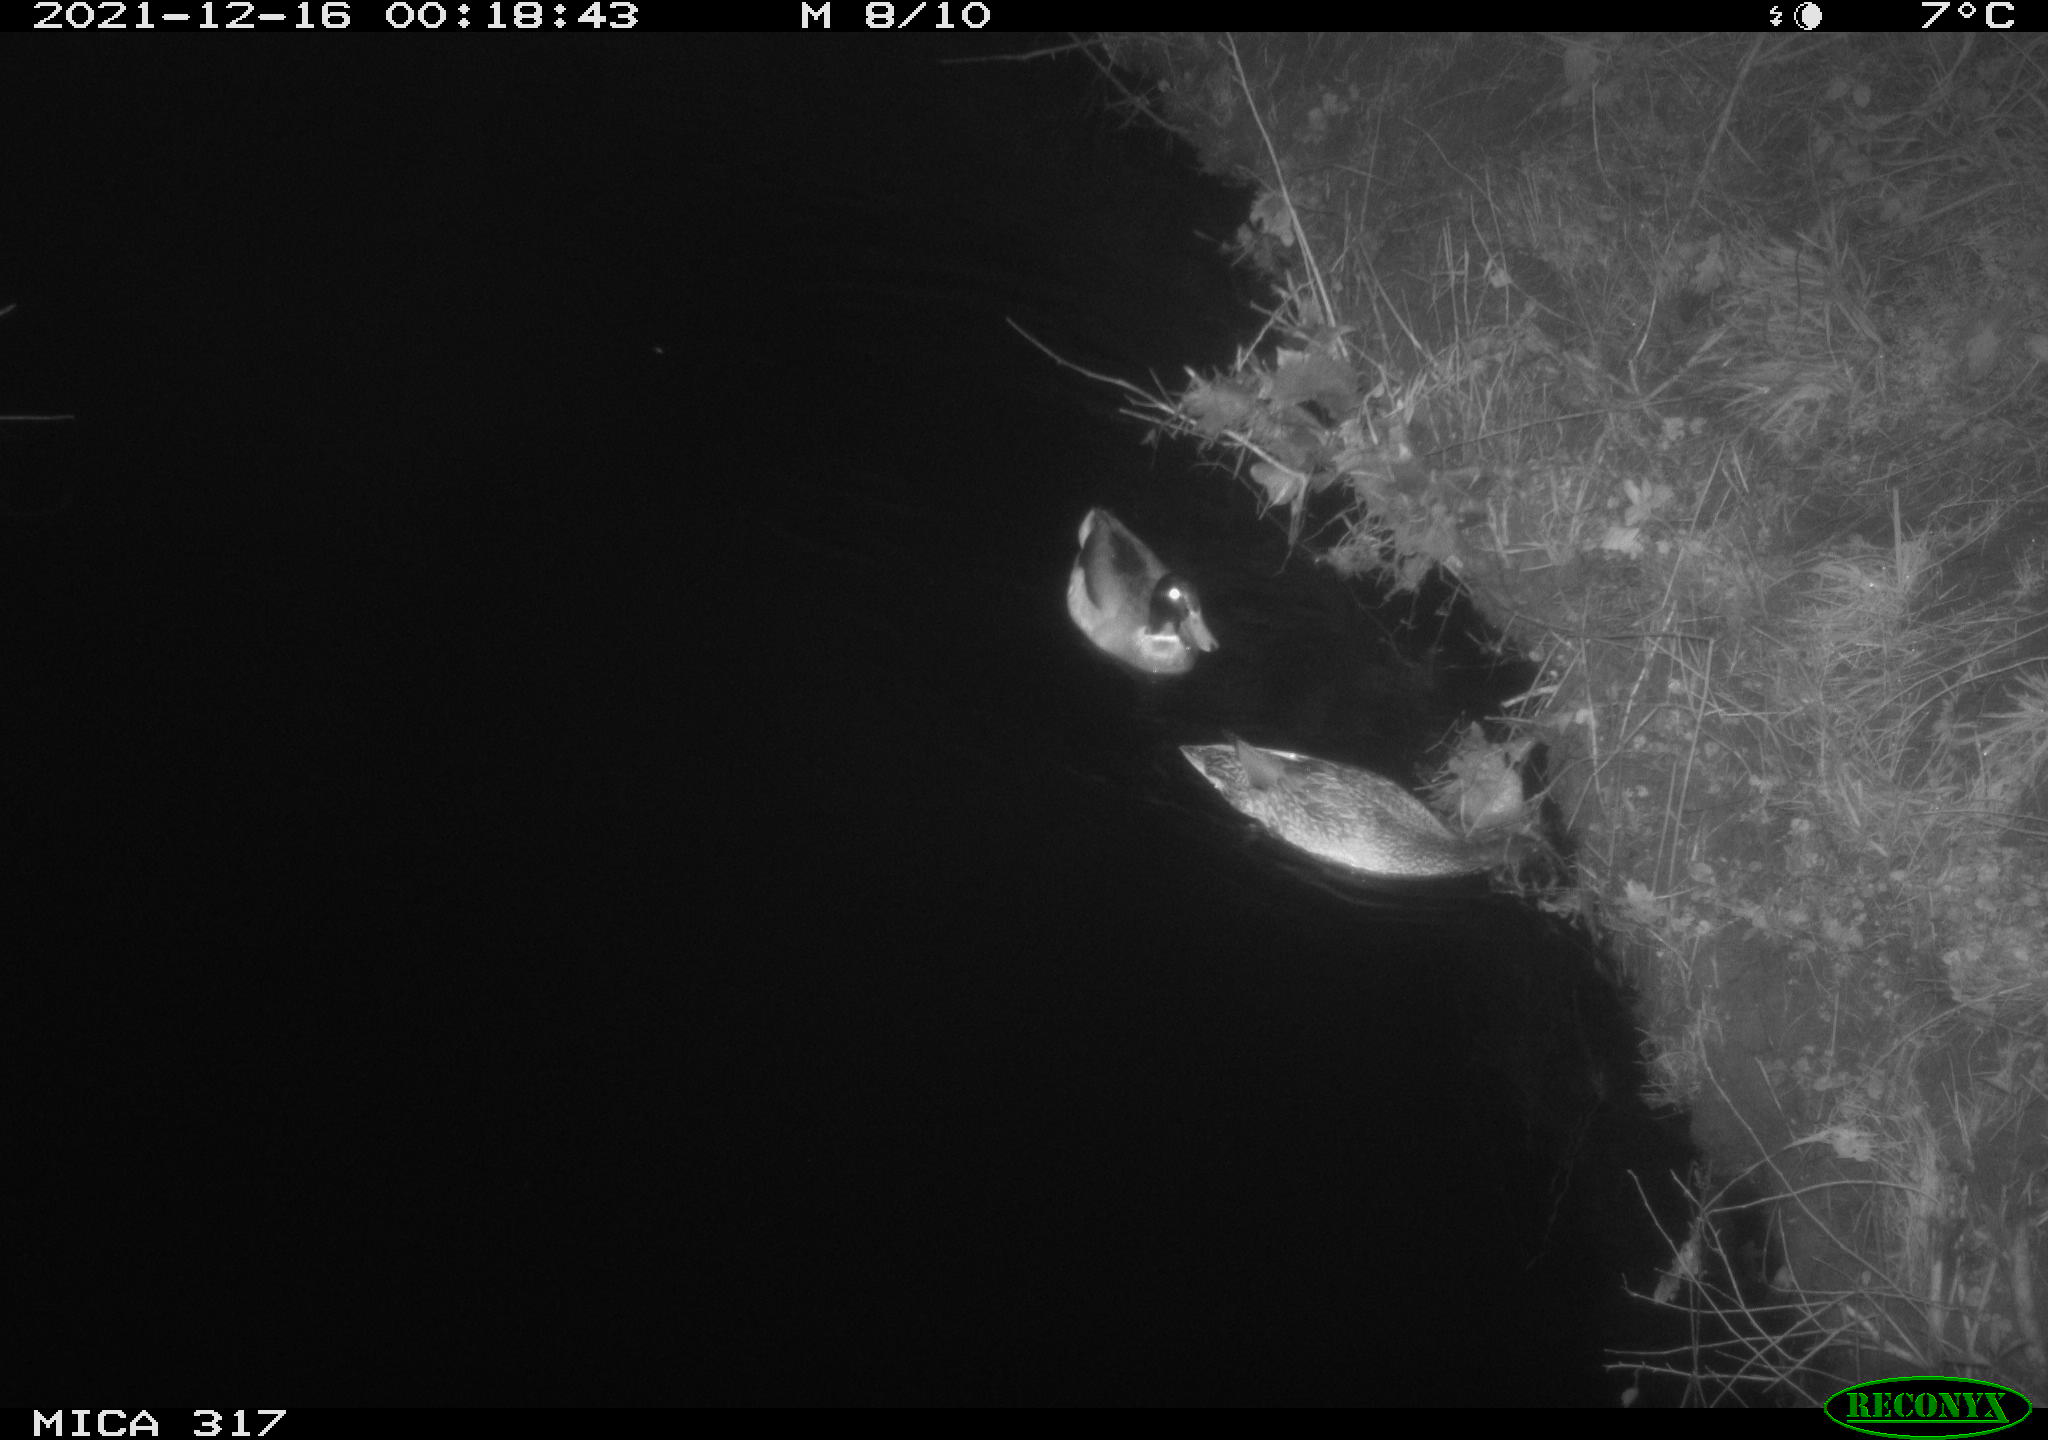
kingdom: Animalia
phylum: Chordata
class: Aves
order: Anseriformes
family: Anatidae
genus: Anas
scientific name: Anas platyrhynchos
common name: Mallard
